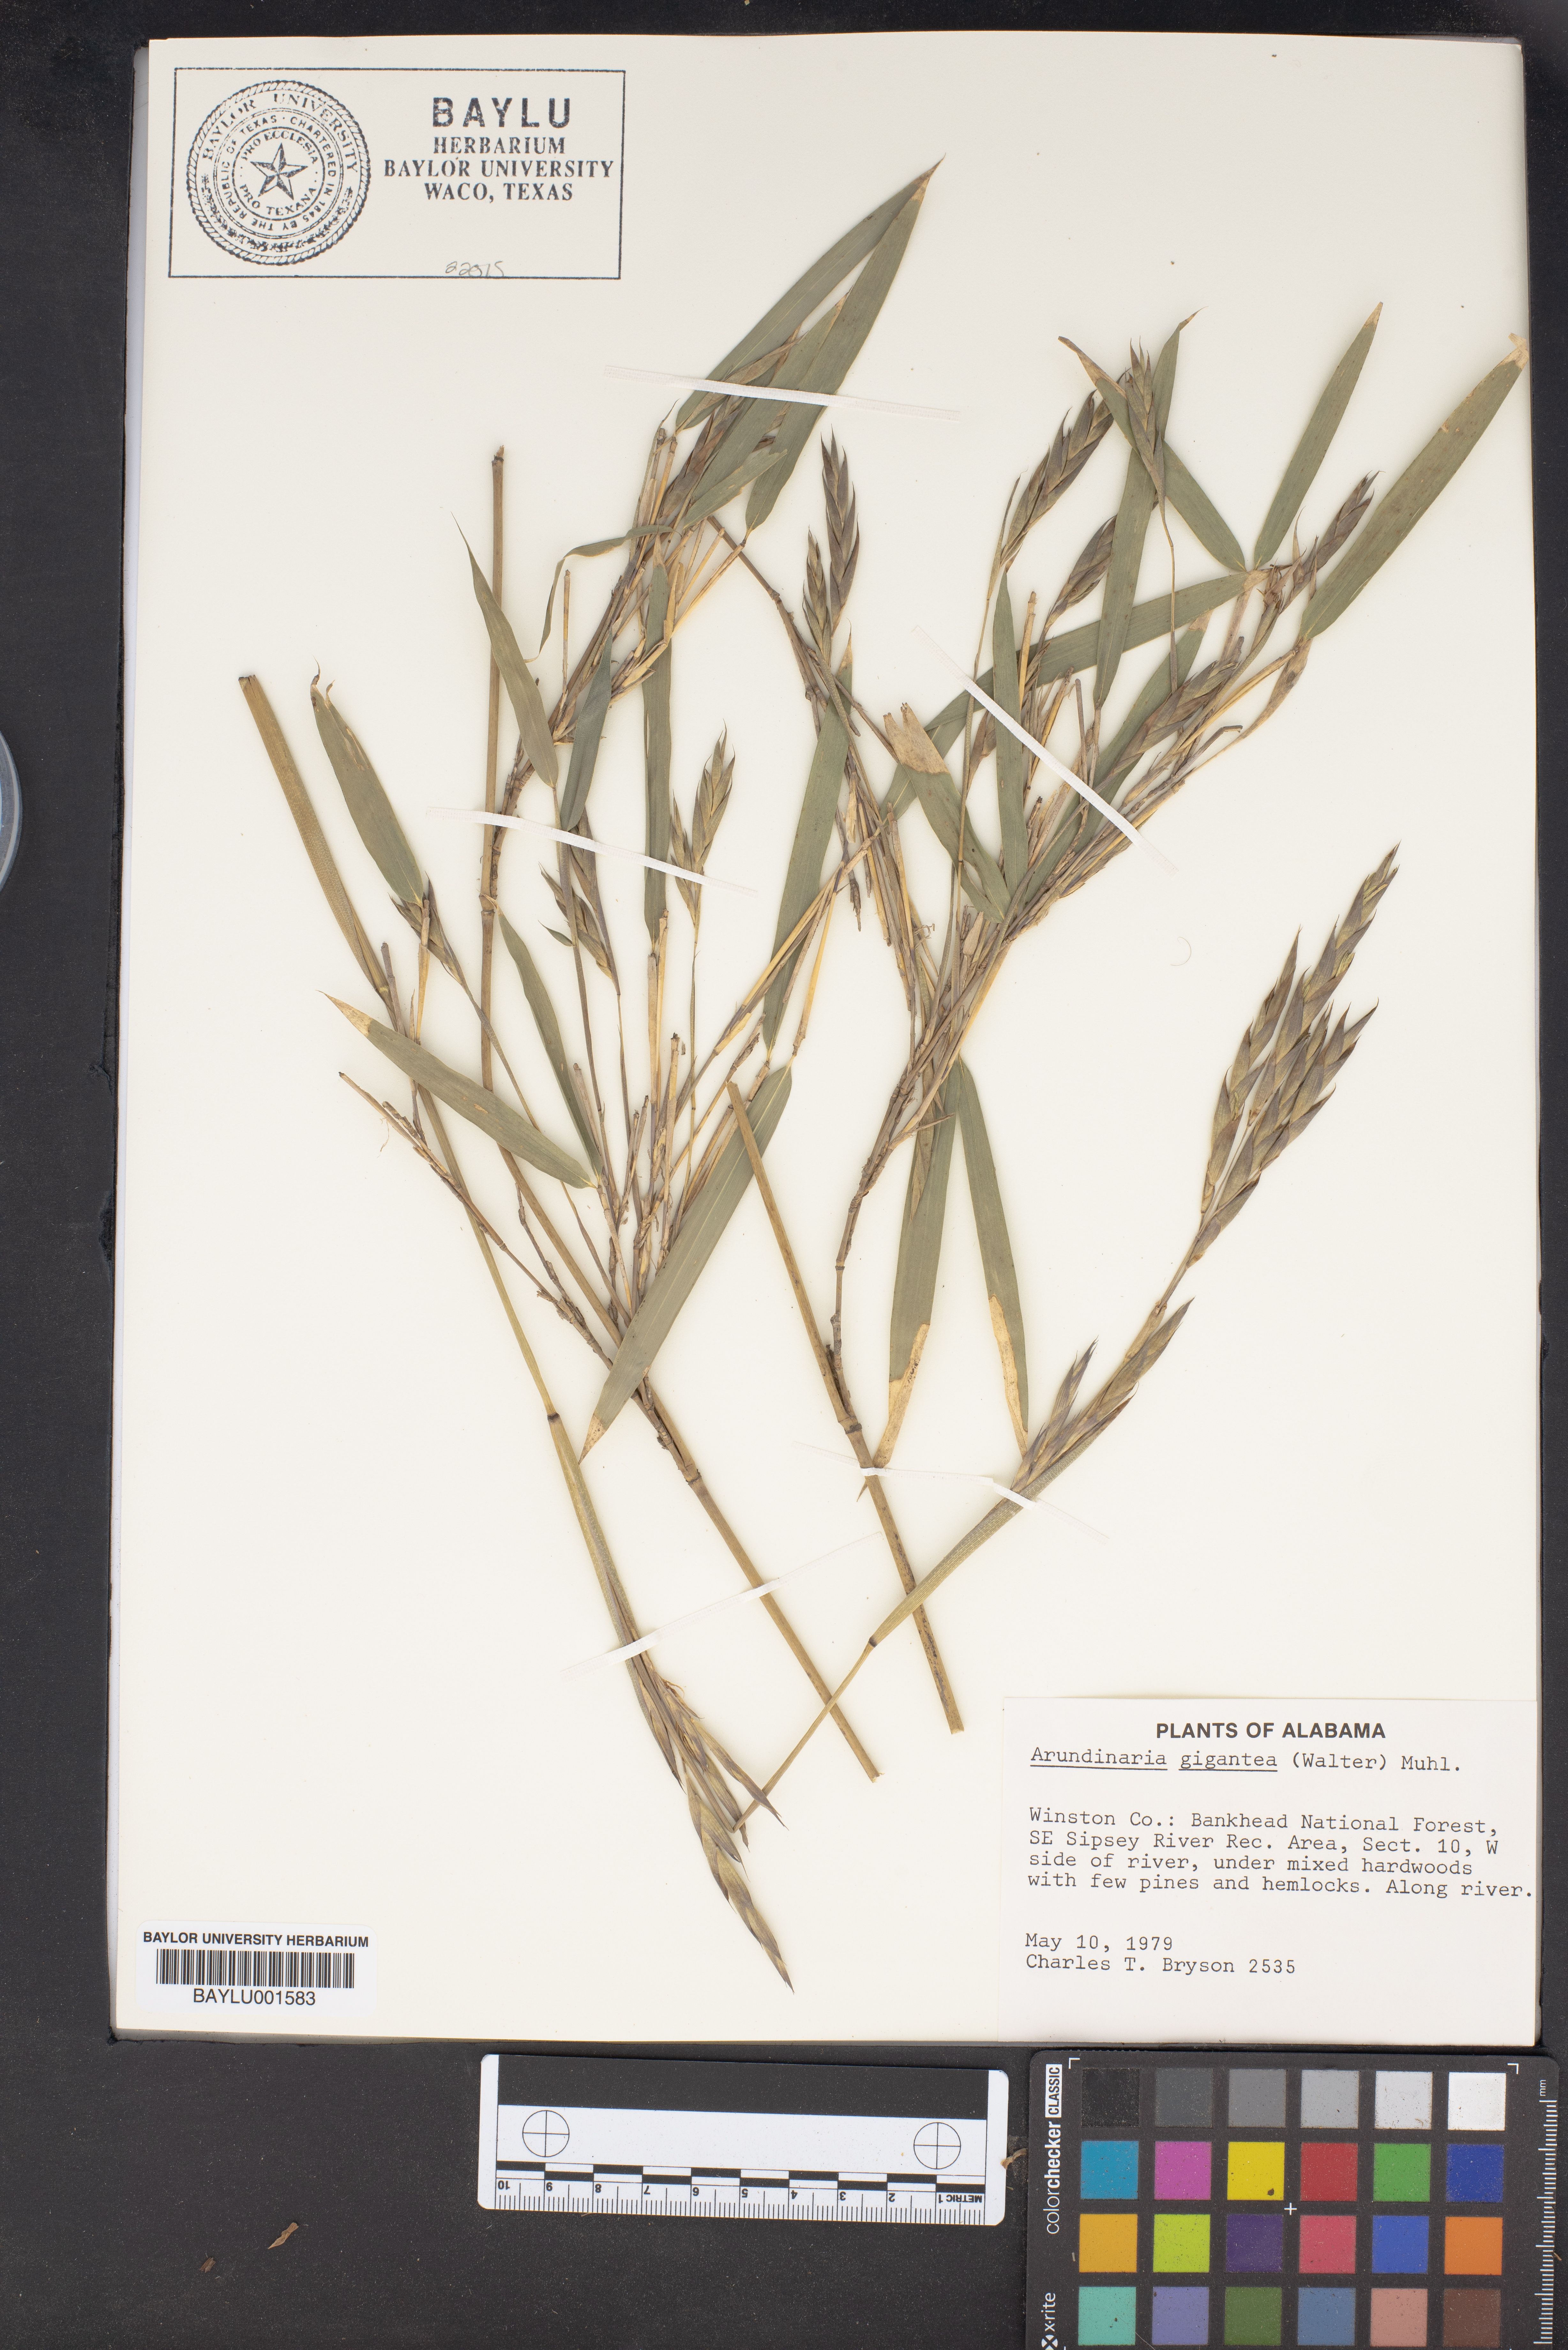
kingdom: Plantae
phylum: Tracheophyta
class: Liliopsida
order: Poales
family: Poaceae
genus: Arundinaria
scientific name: Arundinaria gigantea
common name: Giant cane
